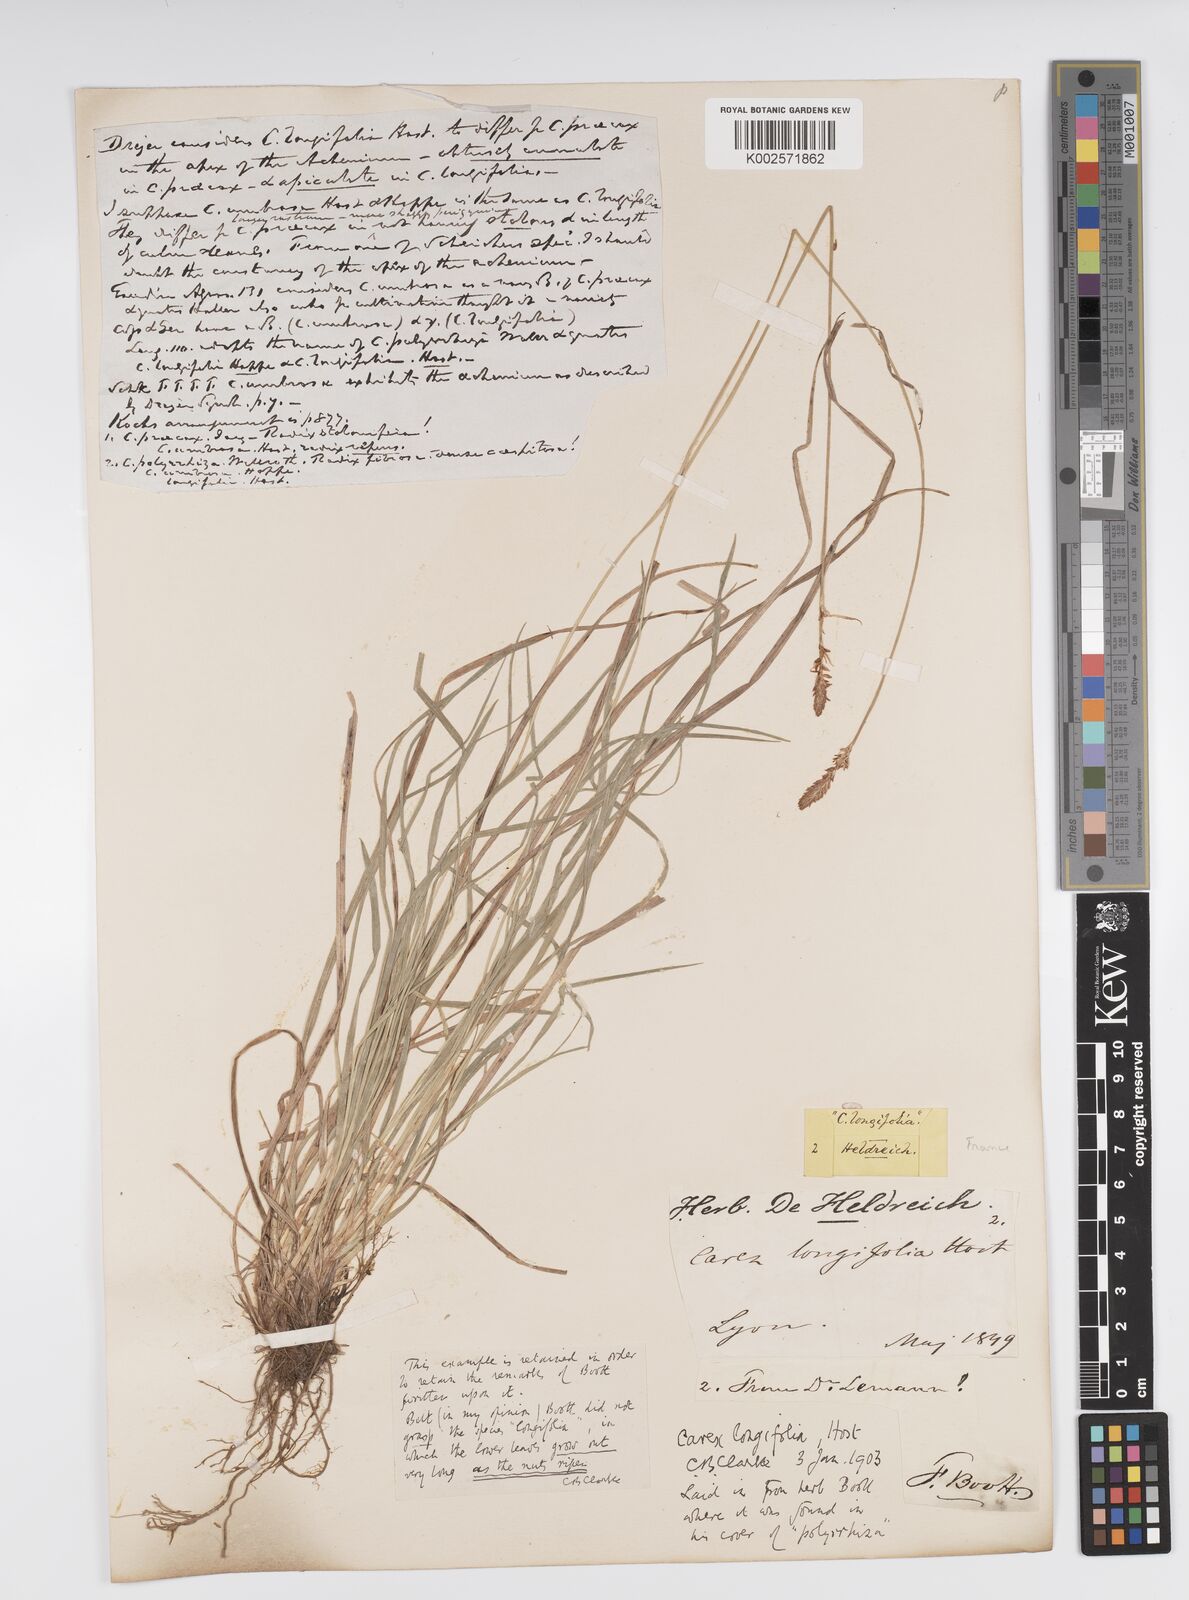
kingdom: Plantae
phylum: Tracheophyta
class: Liliopsida
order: Poales
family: Cyperaceae
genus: Carex
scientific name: Carex umbrosa
